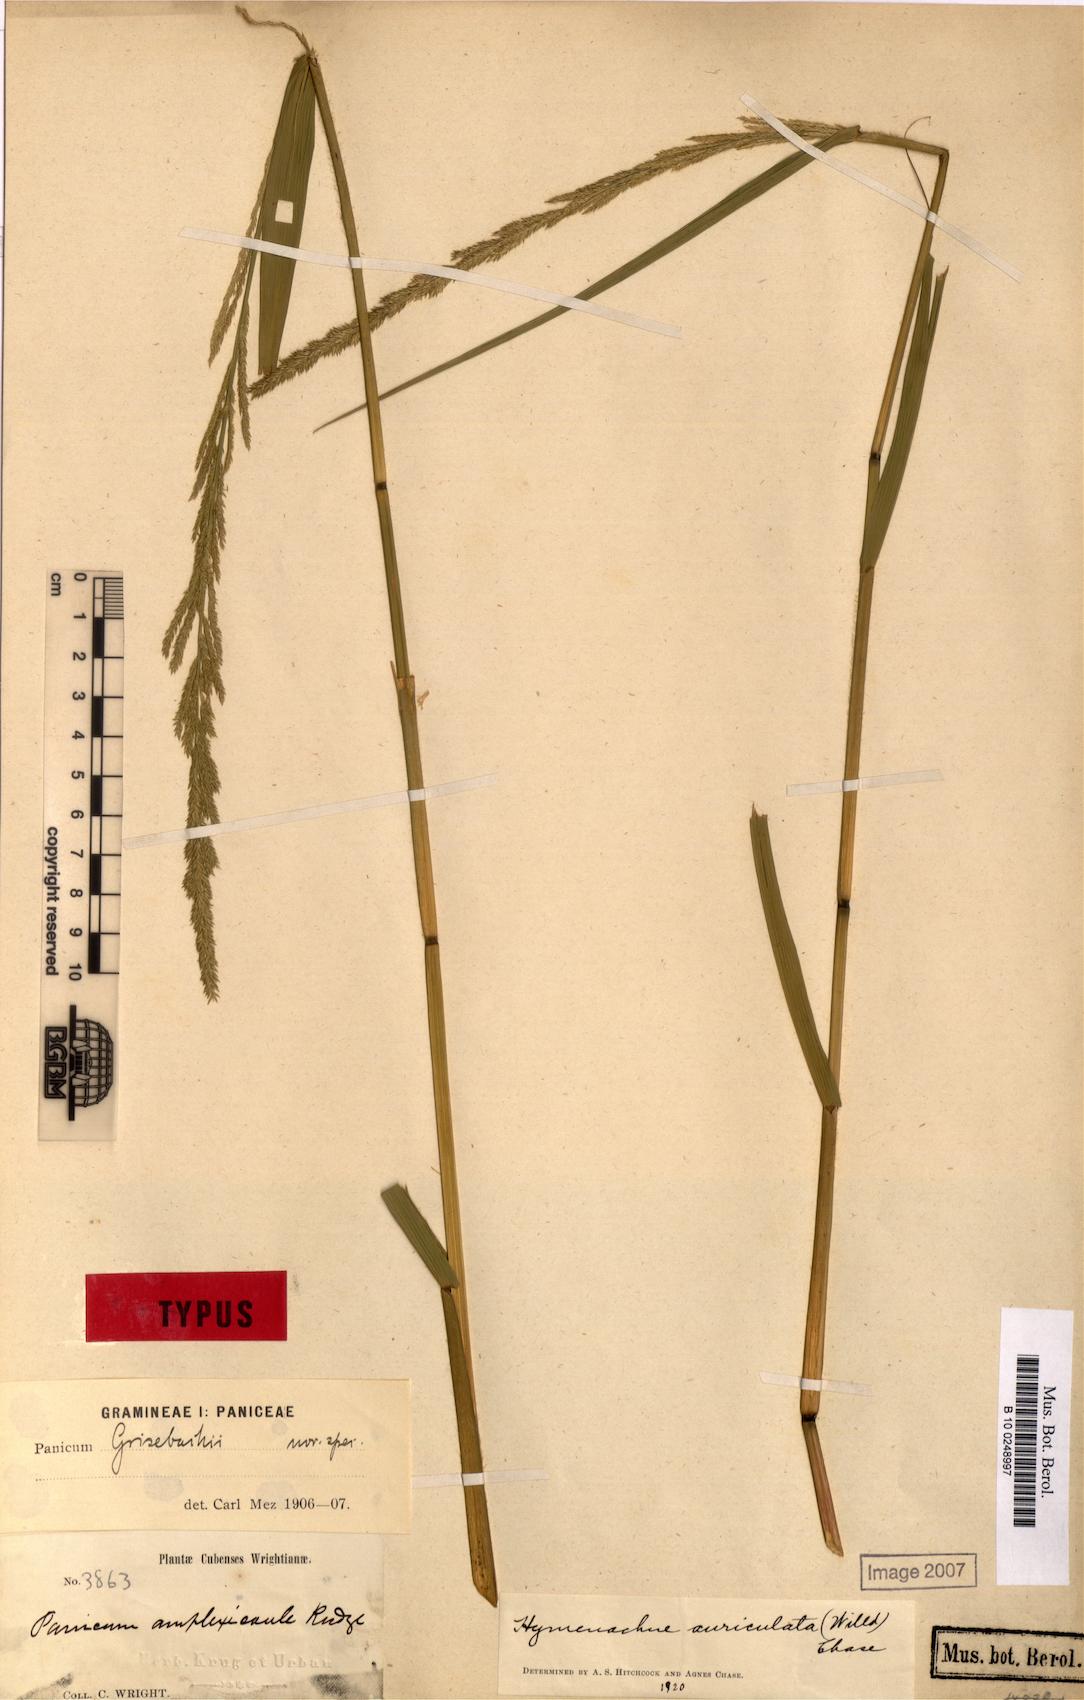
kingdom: Plantae
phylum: Tracheophyta
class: Liliopsida
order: Poales
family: Poaceae
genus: Hymenachne
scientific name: Hymenachne amplexicaulis
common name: Olive hymenachne
